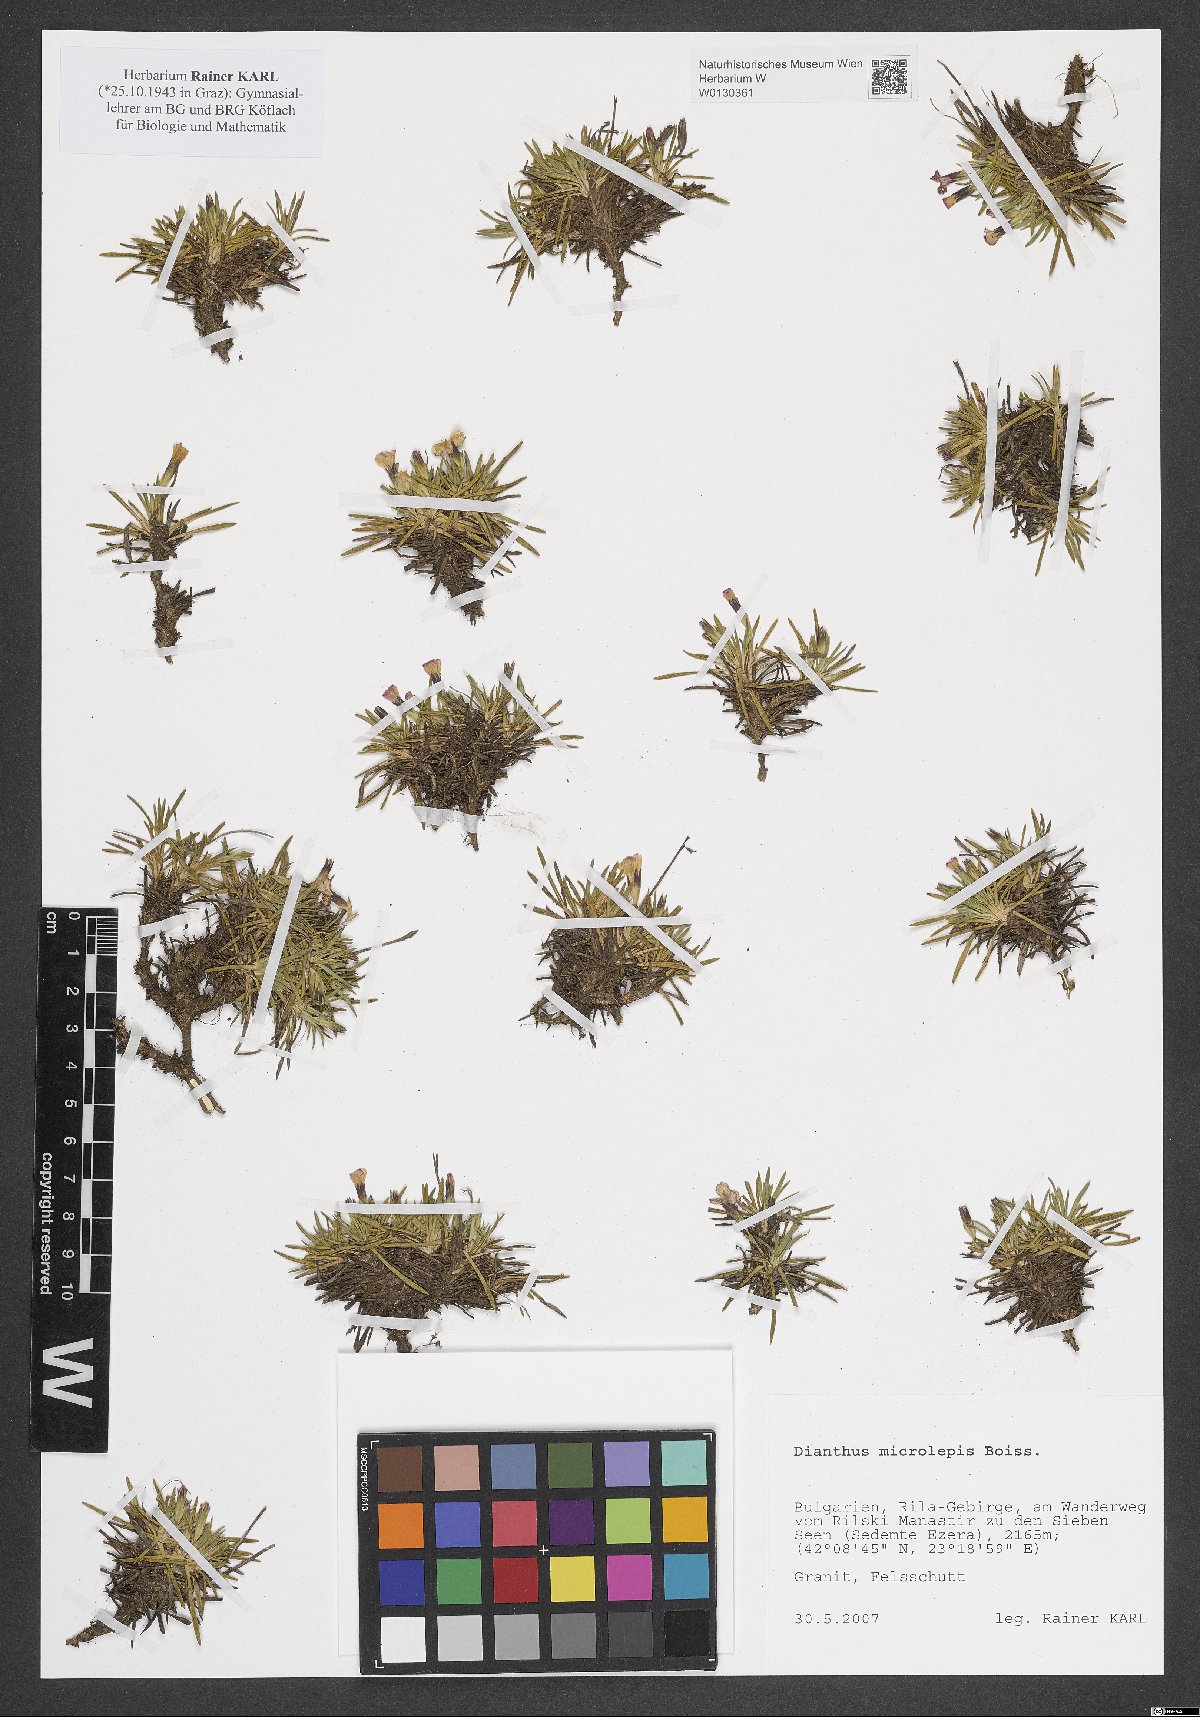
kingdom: Plantae
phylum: Tracheophyta
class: Magnoliopsida
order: Caryophyllales
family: Caryophyllaceae
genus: Dianthus
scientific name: Dianthus microlepis
